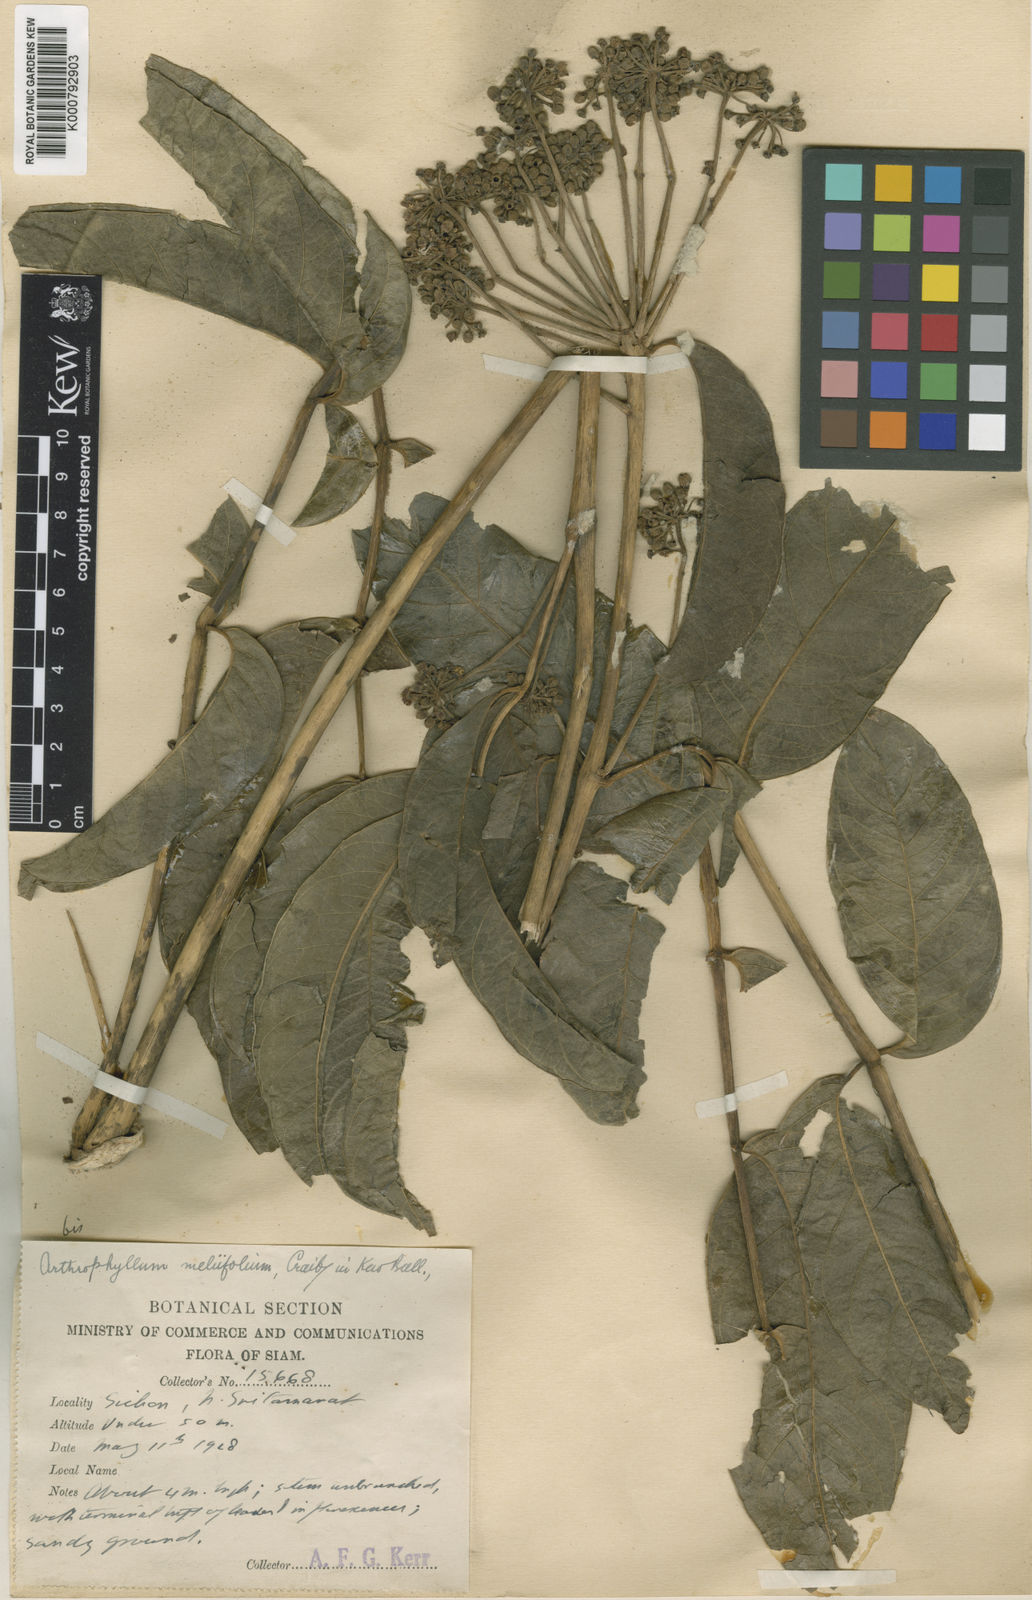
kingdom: Plantae
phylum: Tracheophyta
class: Magnoliopsida
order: Apiales
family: Araliaceae
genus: Polyscias
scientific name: Polyscias meliifolia
